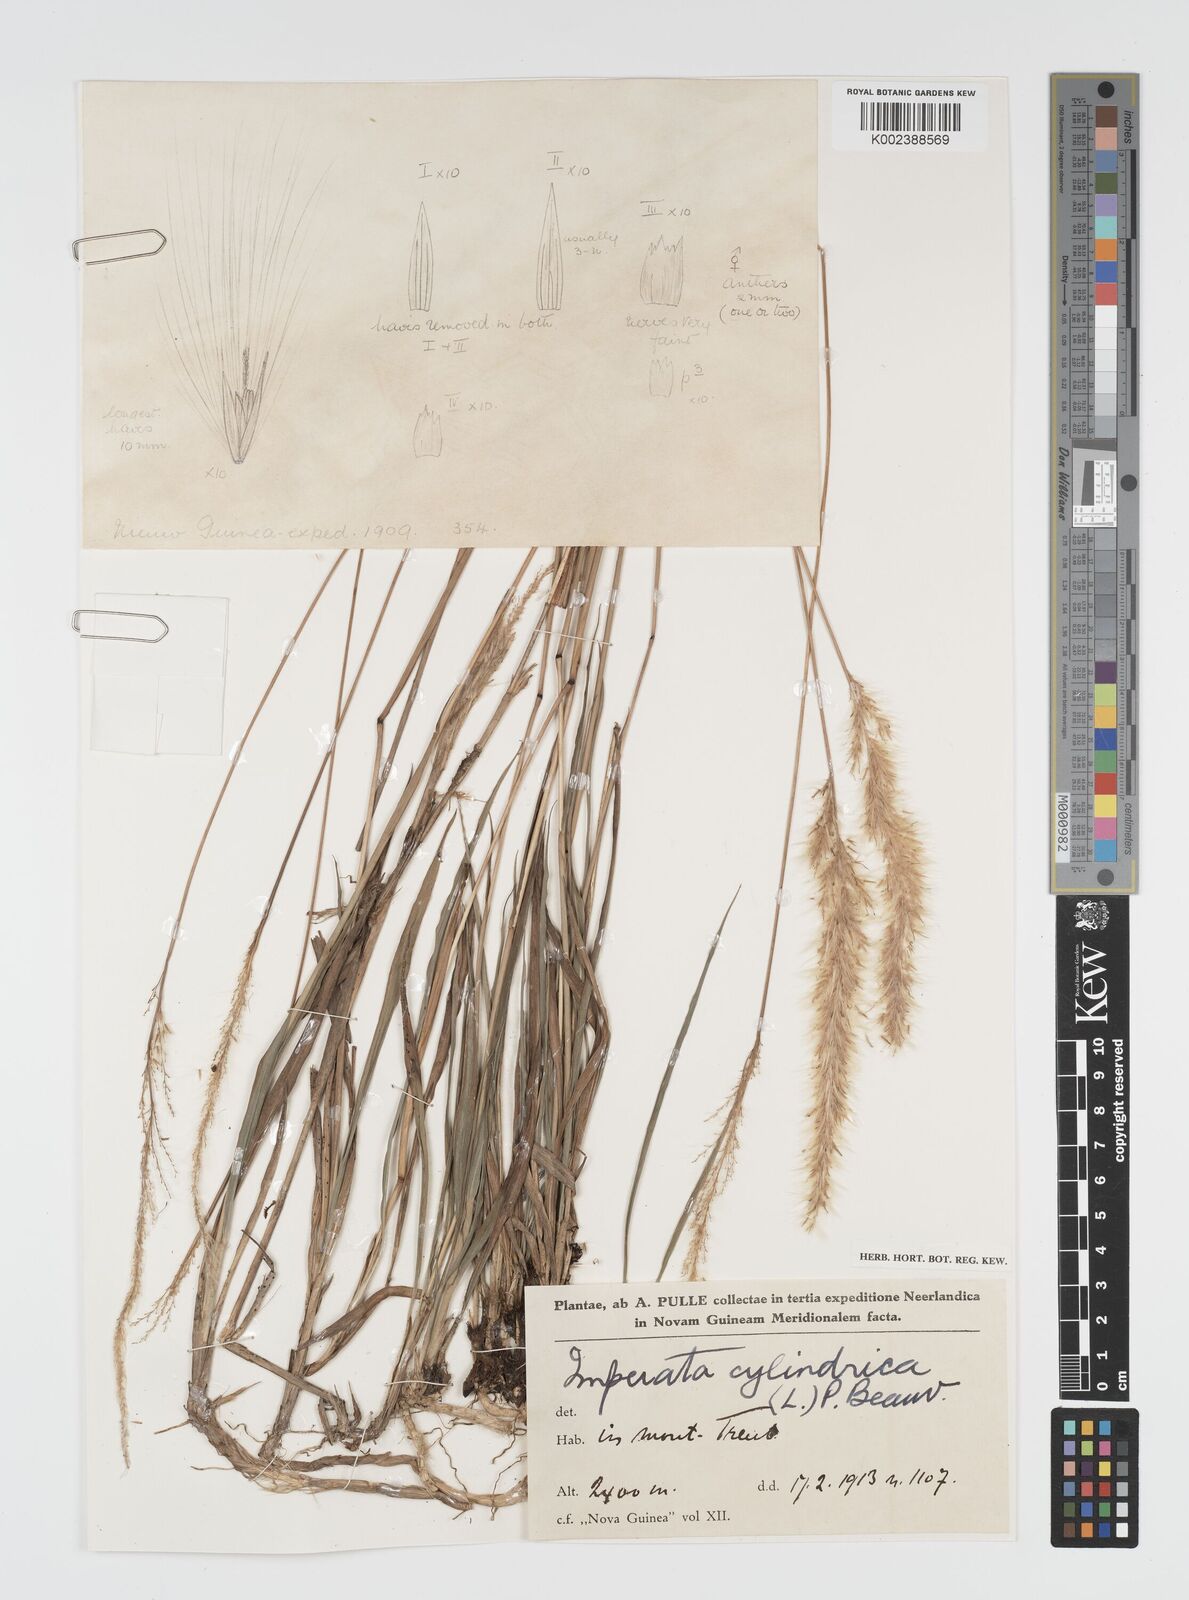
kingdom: Plantae
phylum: Tracheophyta
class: Liliopsida
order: Poales
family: Poaceae
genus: Imperata
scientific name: Imperata cylindrica
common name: Cogongrass
